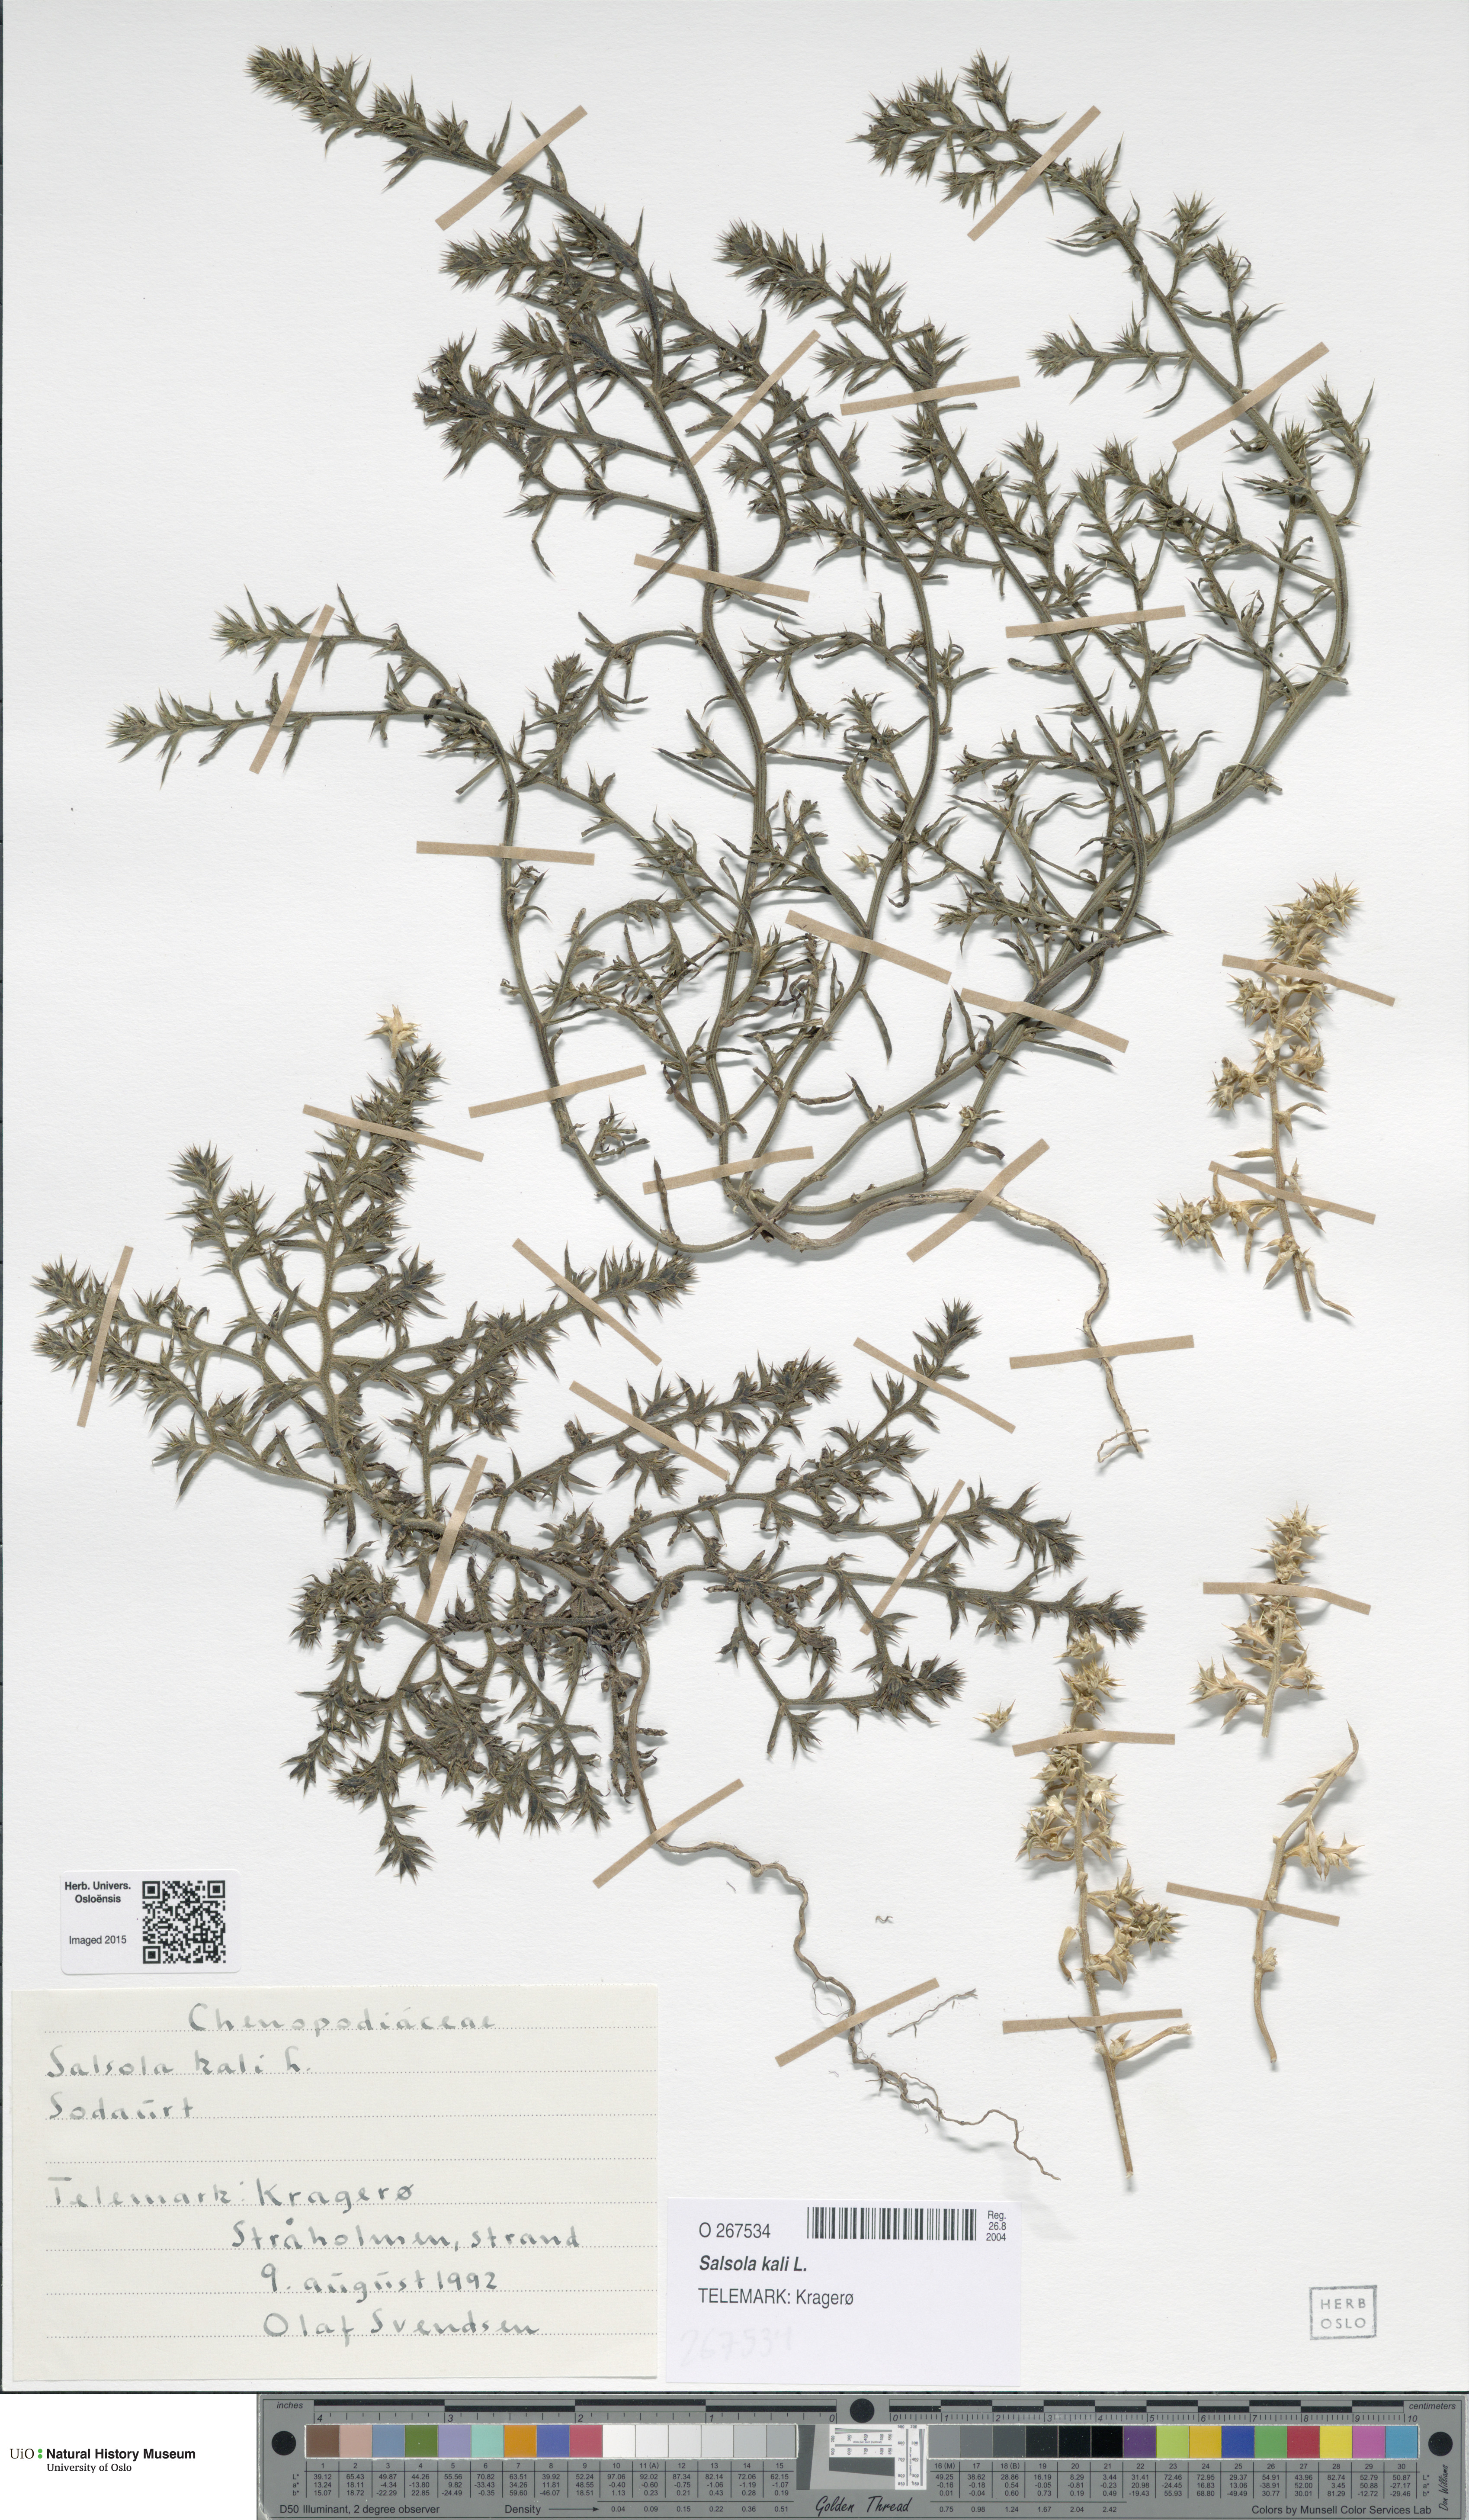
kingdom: Plantae
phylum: Tracheophyta
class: Magnoliopsida
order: Caryophyllales
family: Amaranthaceae
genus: Salsola
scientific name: Salsola kali
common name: Saltwort
